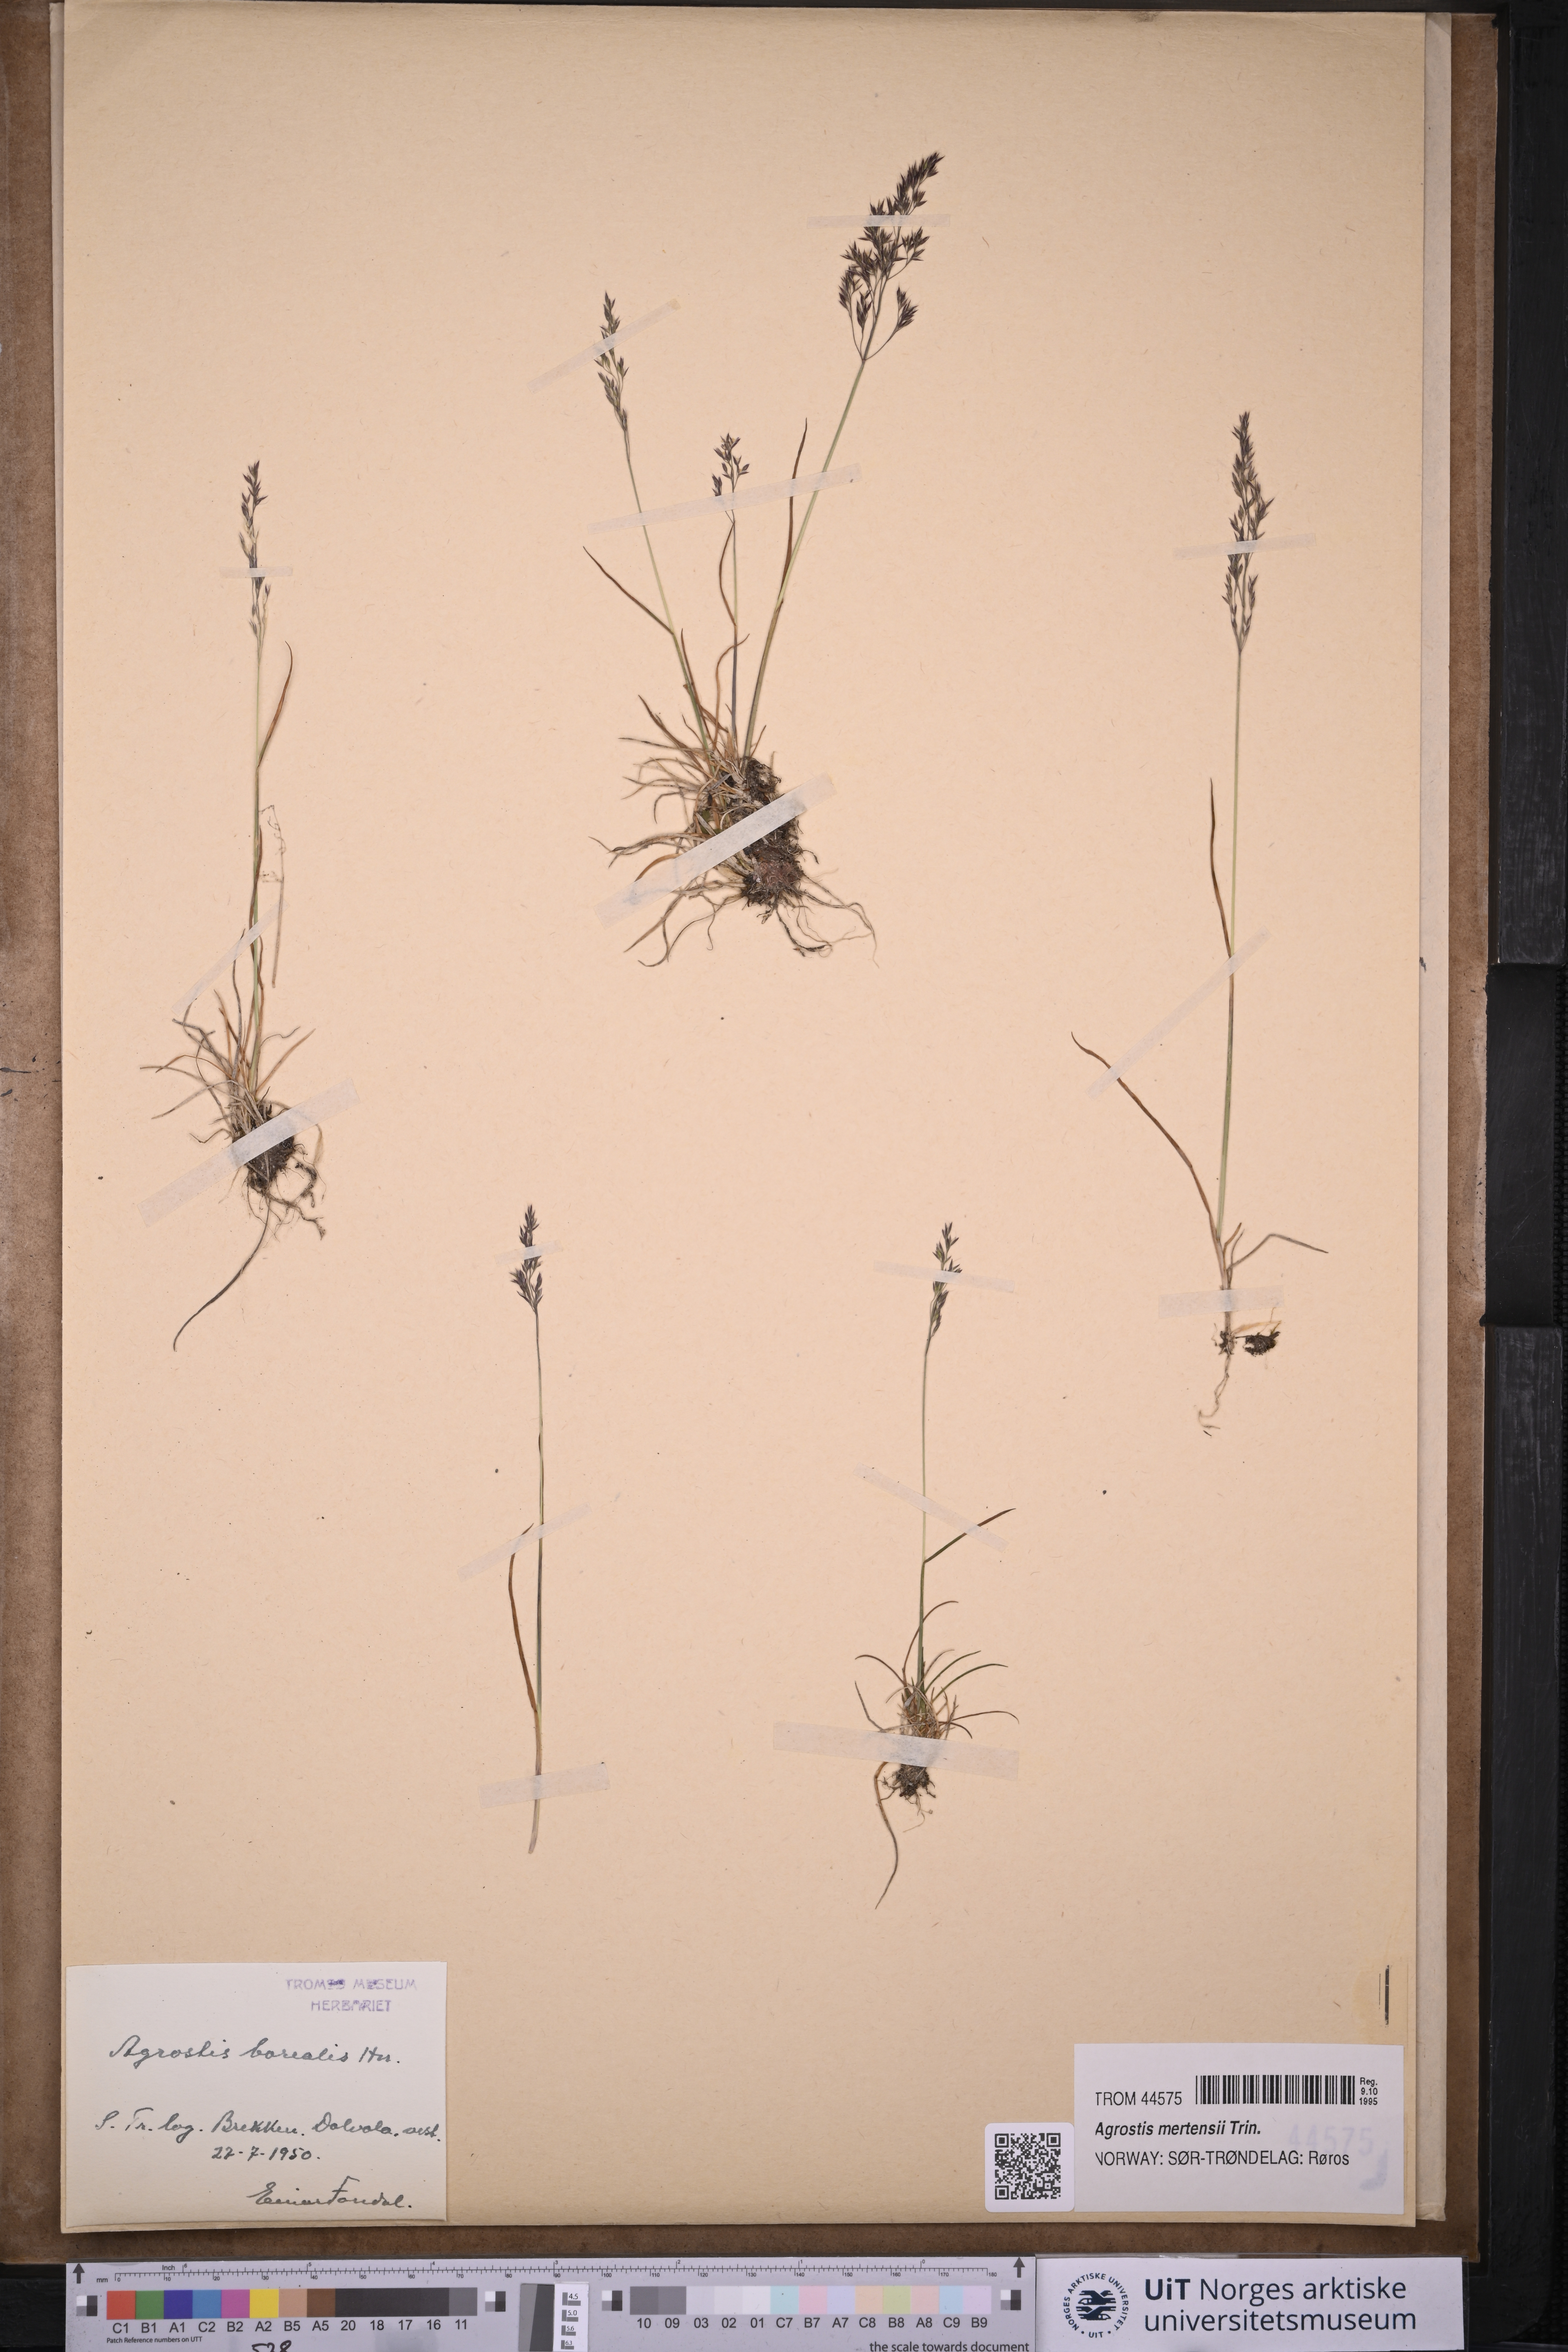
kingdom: Plantae
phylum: Tracheophyta
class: Liliopsida
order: Poales
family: Poaceae
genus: Agrostis
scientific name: Agrostis mertensii
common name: Northern bent
